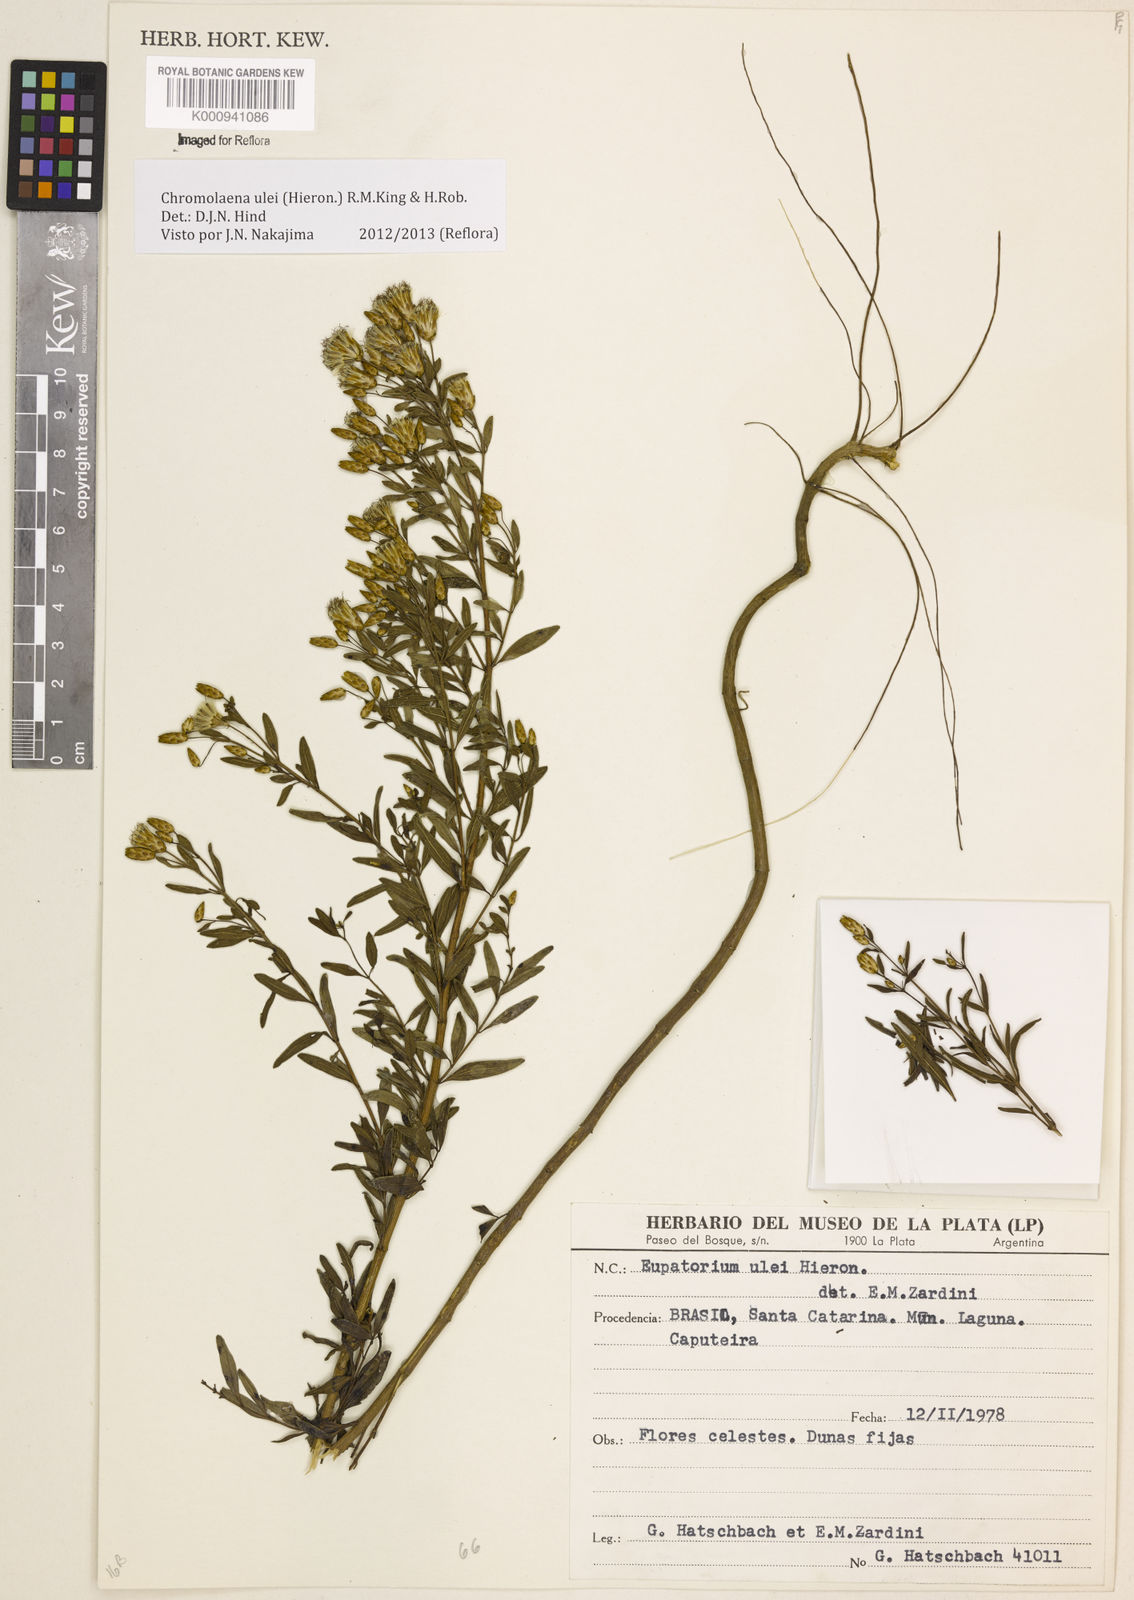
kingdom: Plantae
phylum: Tracheophyta
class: Magnoliopsida
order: Asterales
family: Asteraceae
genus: Chromolaena
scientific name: Chromolaena ulei
